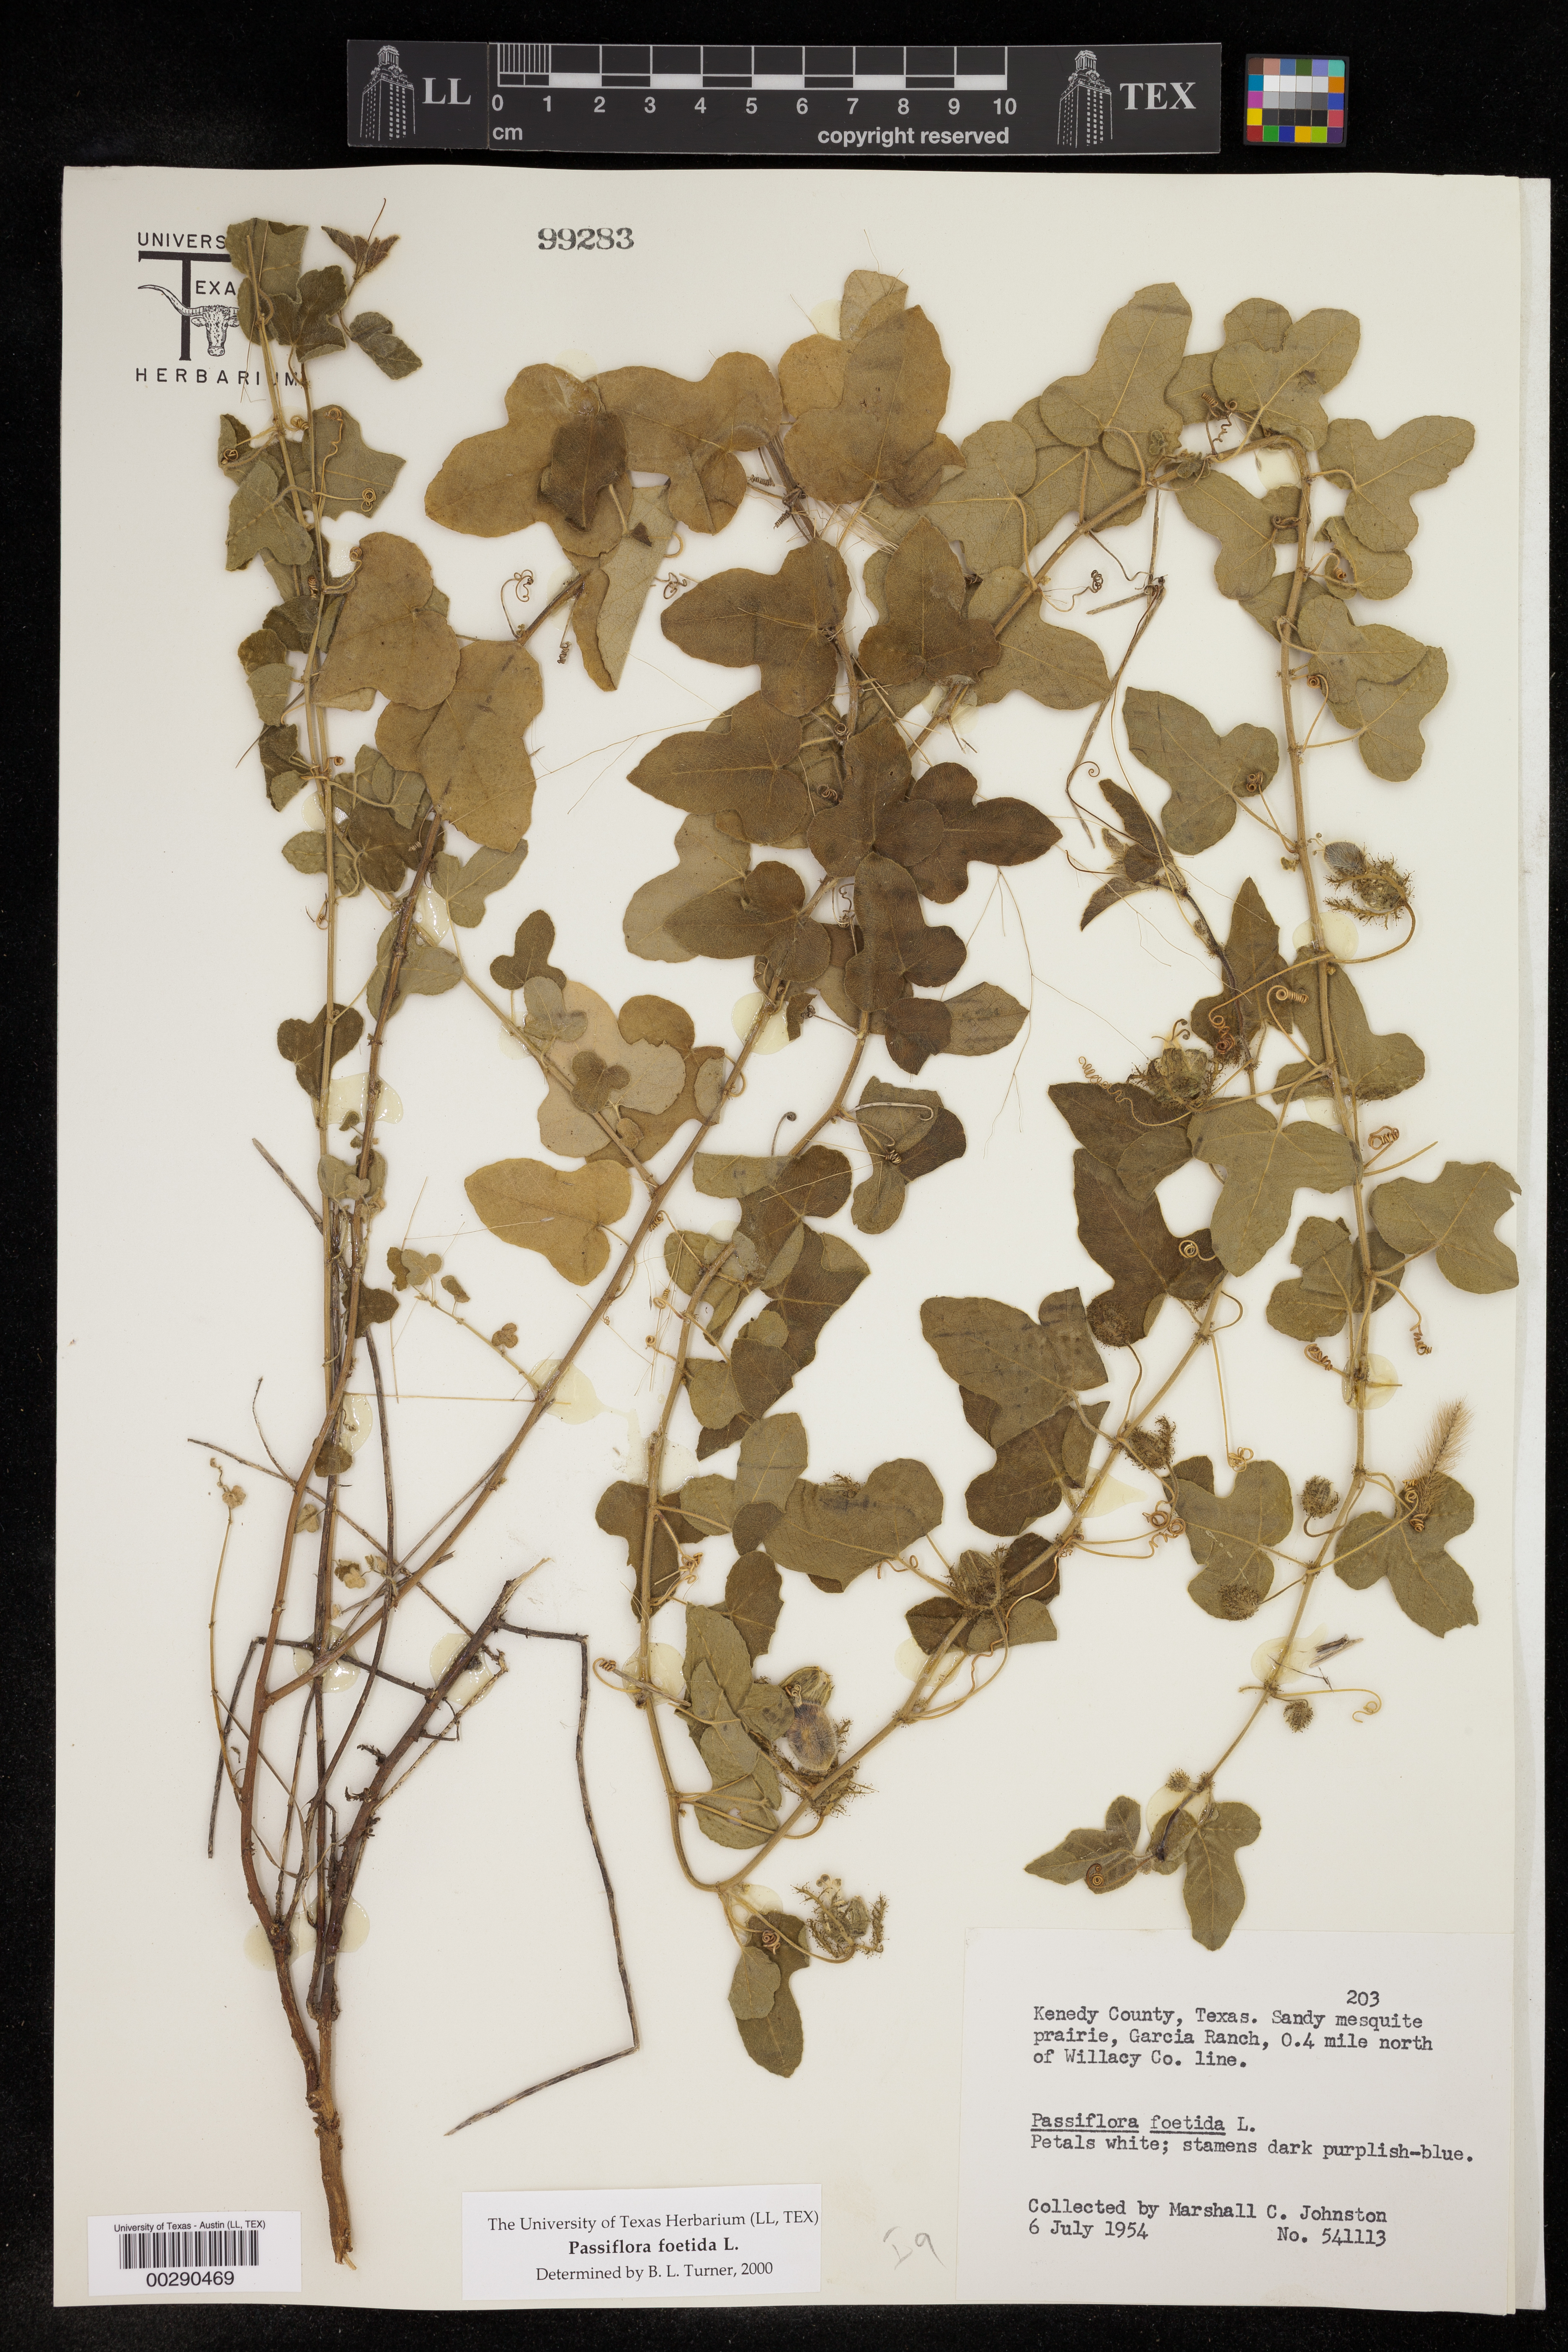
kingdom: Plantae
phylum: Tracheophyta
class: Magnoliopsida
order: Malpighiales
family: Passifloraceae
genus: Passiflora
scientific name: Passiflora foetida
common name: Fetid passionflower
